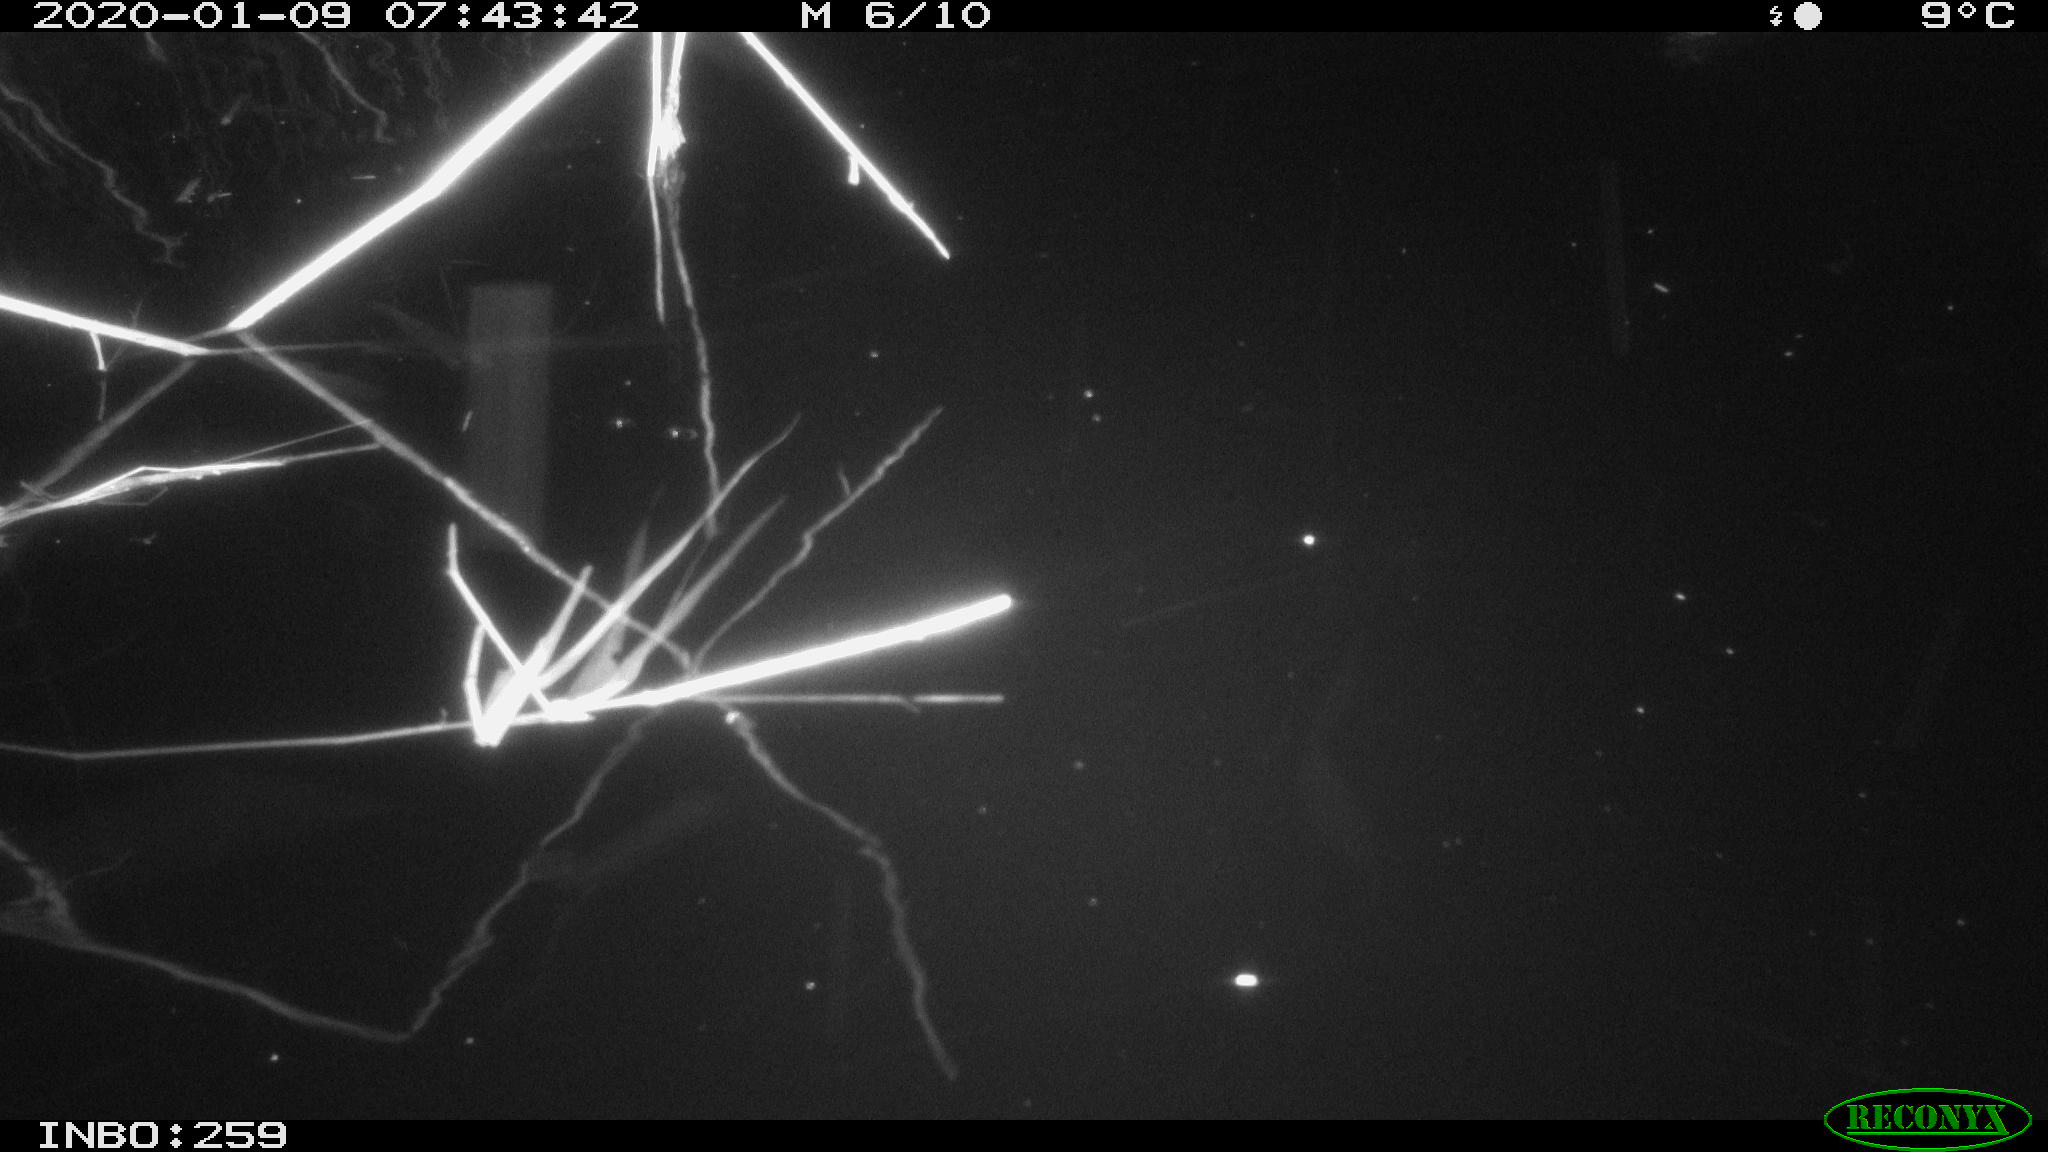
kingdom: Animalia
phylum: Chordata
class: Aves
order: Gruiformes
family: Rallidae
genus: Gallinula
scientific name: Gallinula chloropus
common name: Common moorhen
